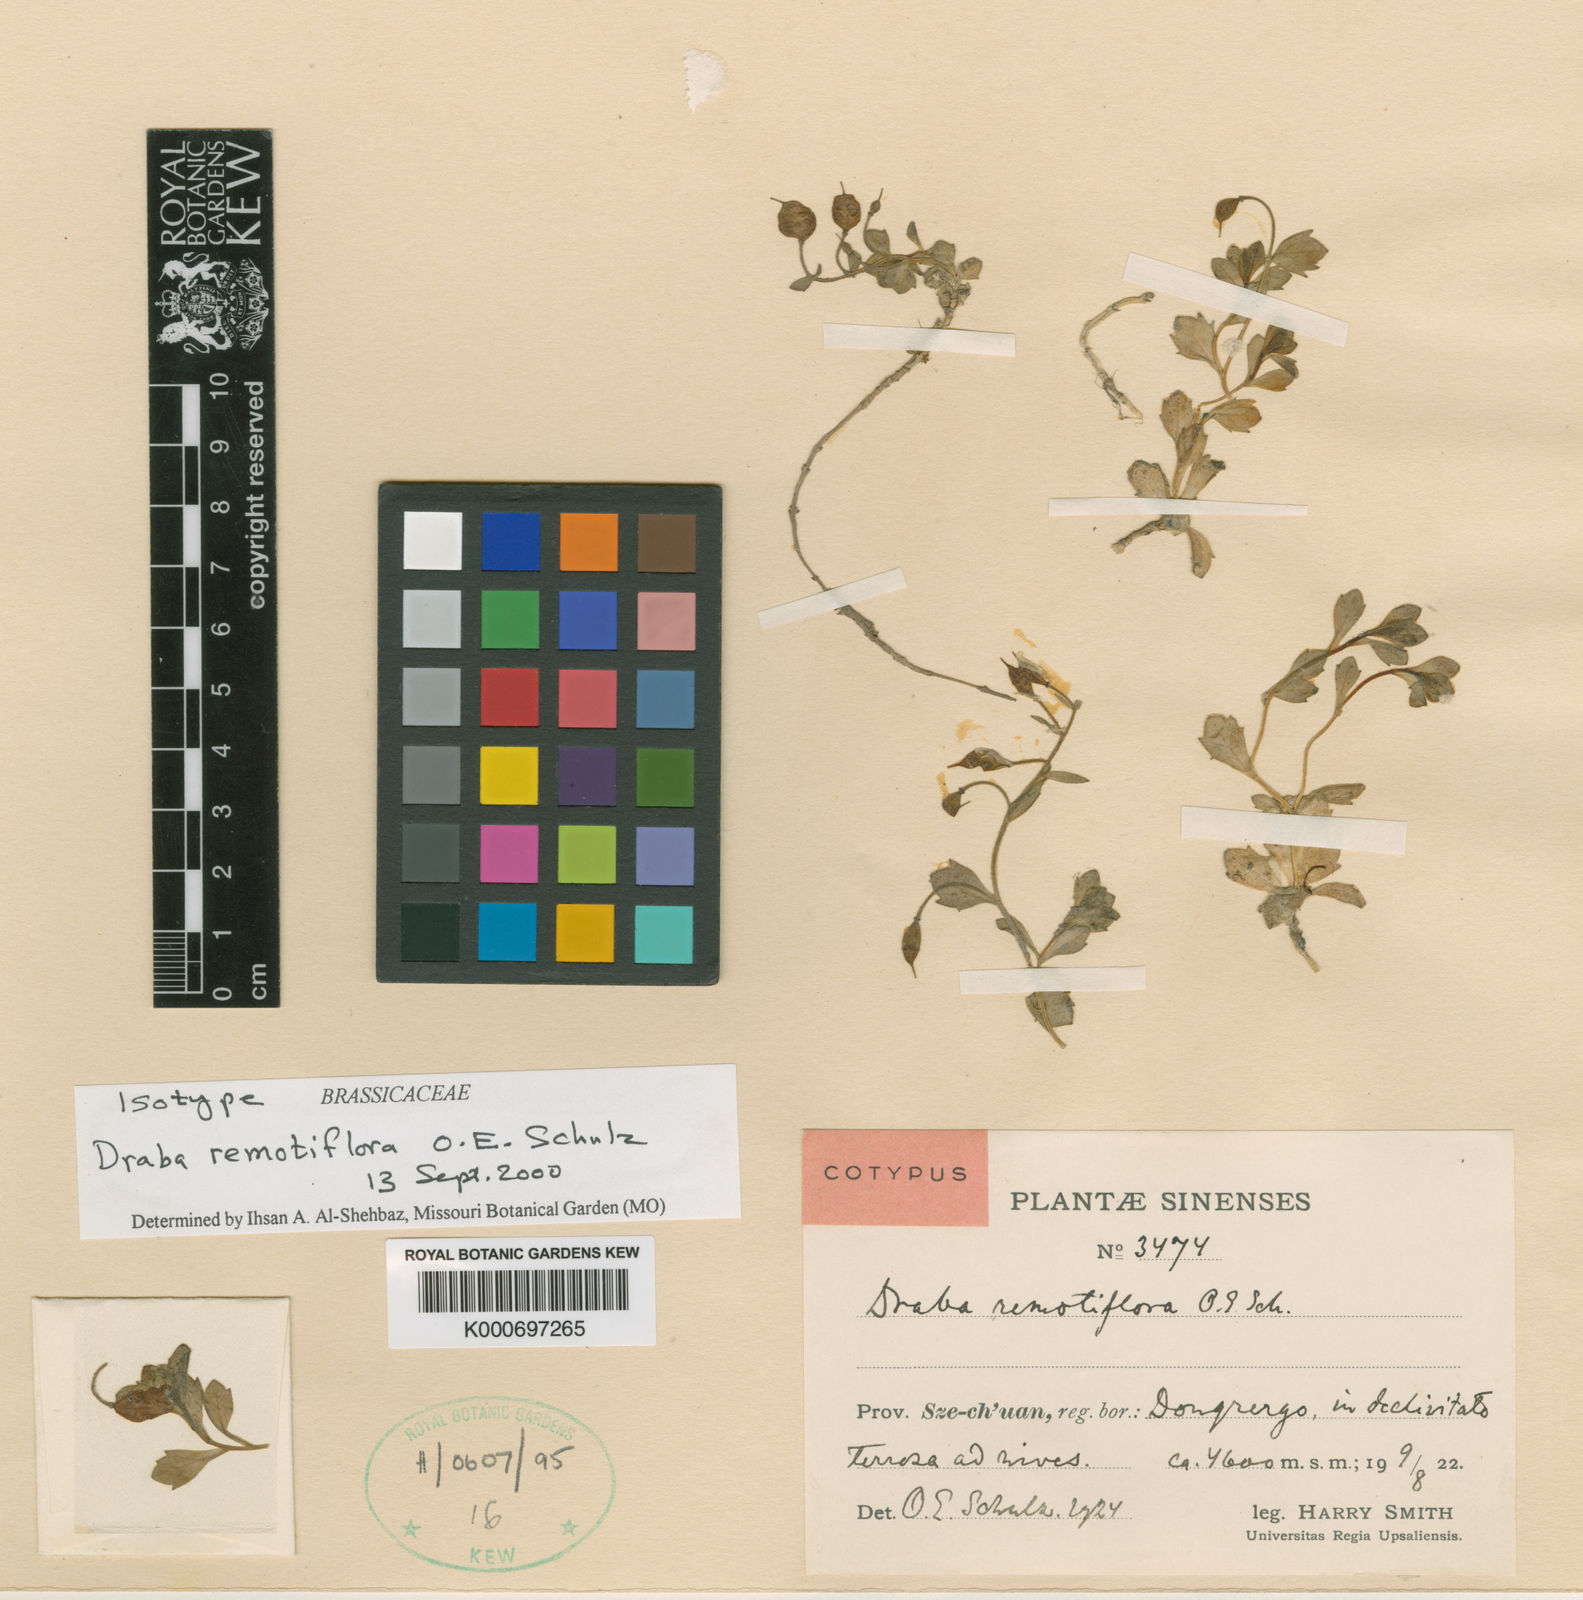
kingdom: Plantae
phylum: Tracheophyta
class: Magnoliopsida
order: Brassicales
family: Brassicaceae
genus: Draba
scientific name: Draba remotiflora
